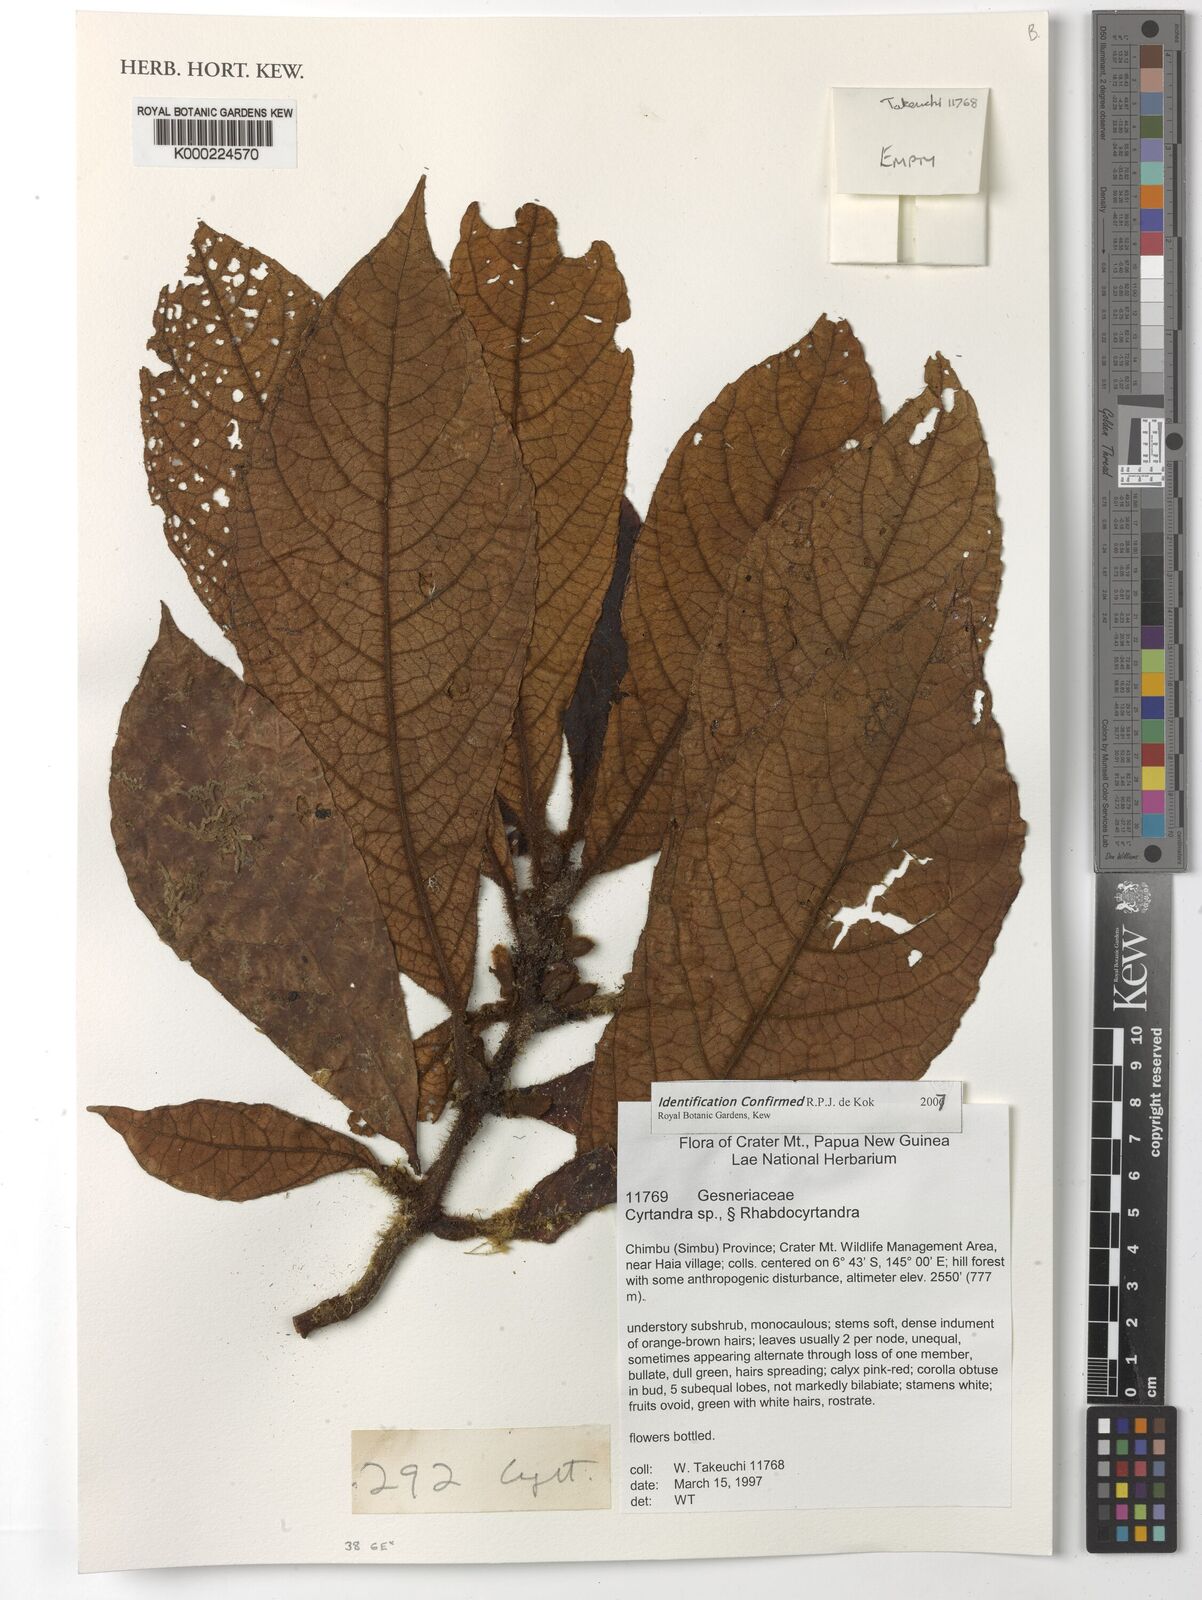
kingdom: Plantae
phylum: Tracheophyta
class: Magnoliopsida
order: Lamiales
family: Gesneriaceae
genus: Cyrtandra
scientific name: Cyrtandra
